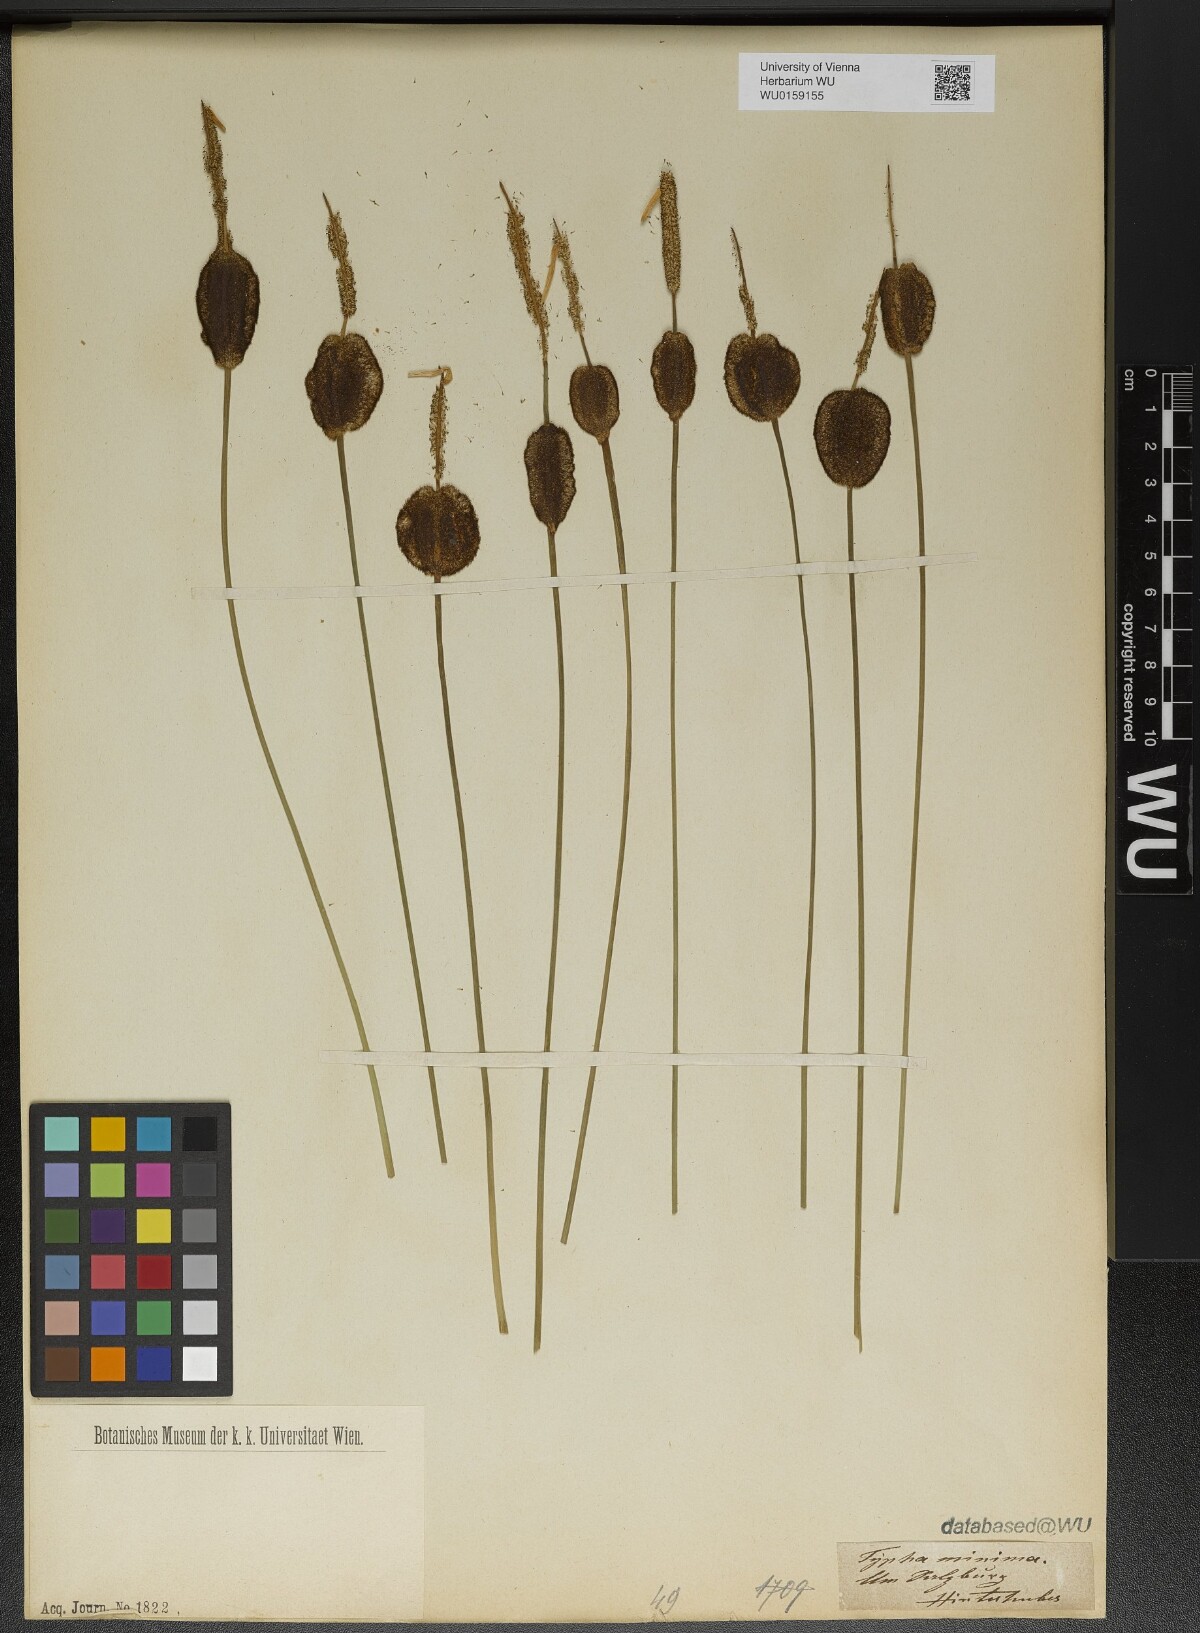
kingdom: Plantae
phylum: Tracheophyta
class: Liliopsida
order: Poales
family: Typhaceae
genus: Typha
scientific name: Typha minima
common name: Dwarf bulrush
